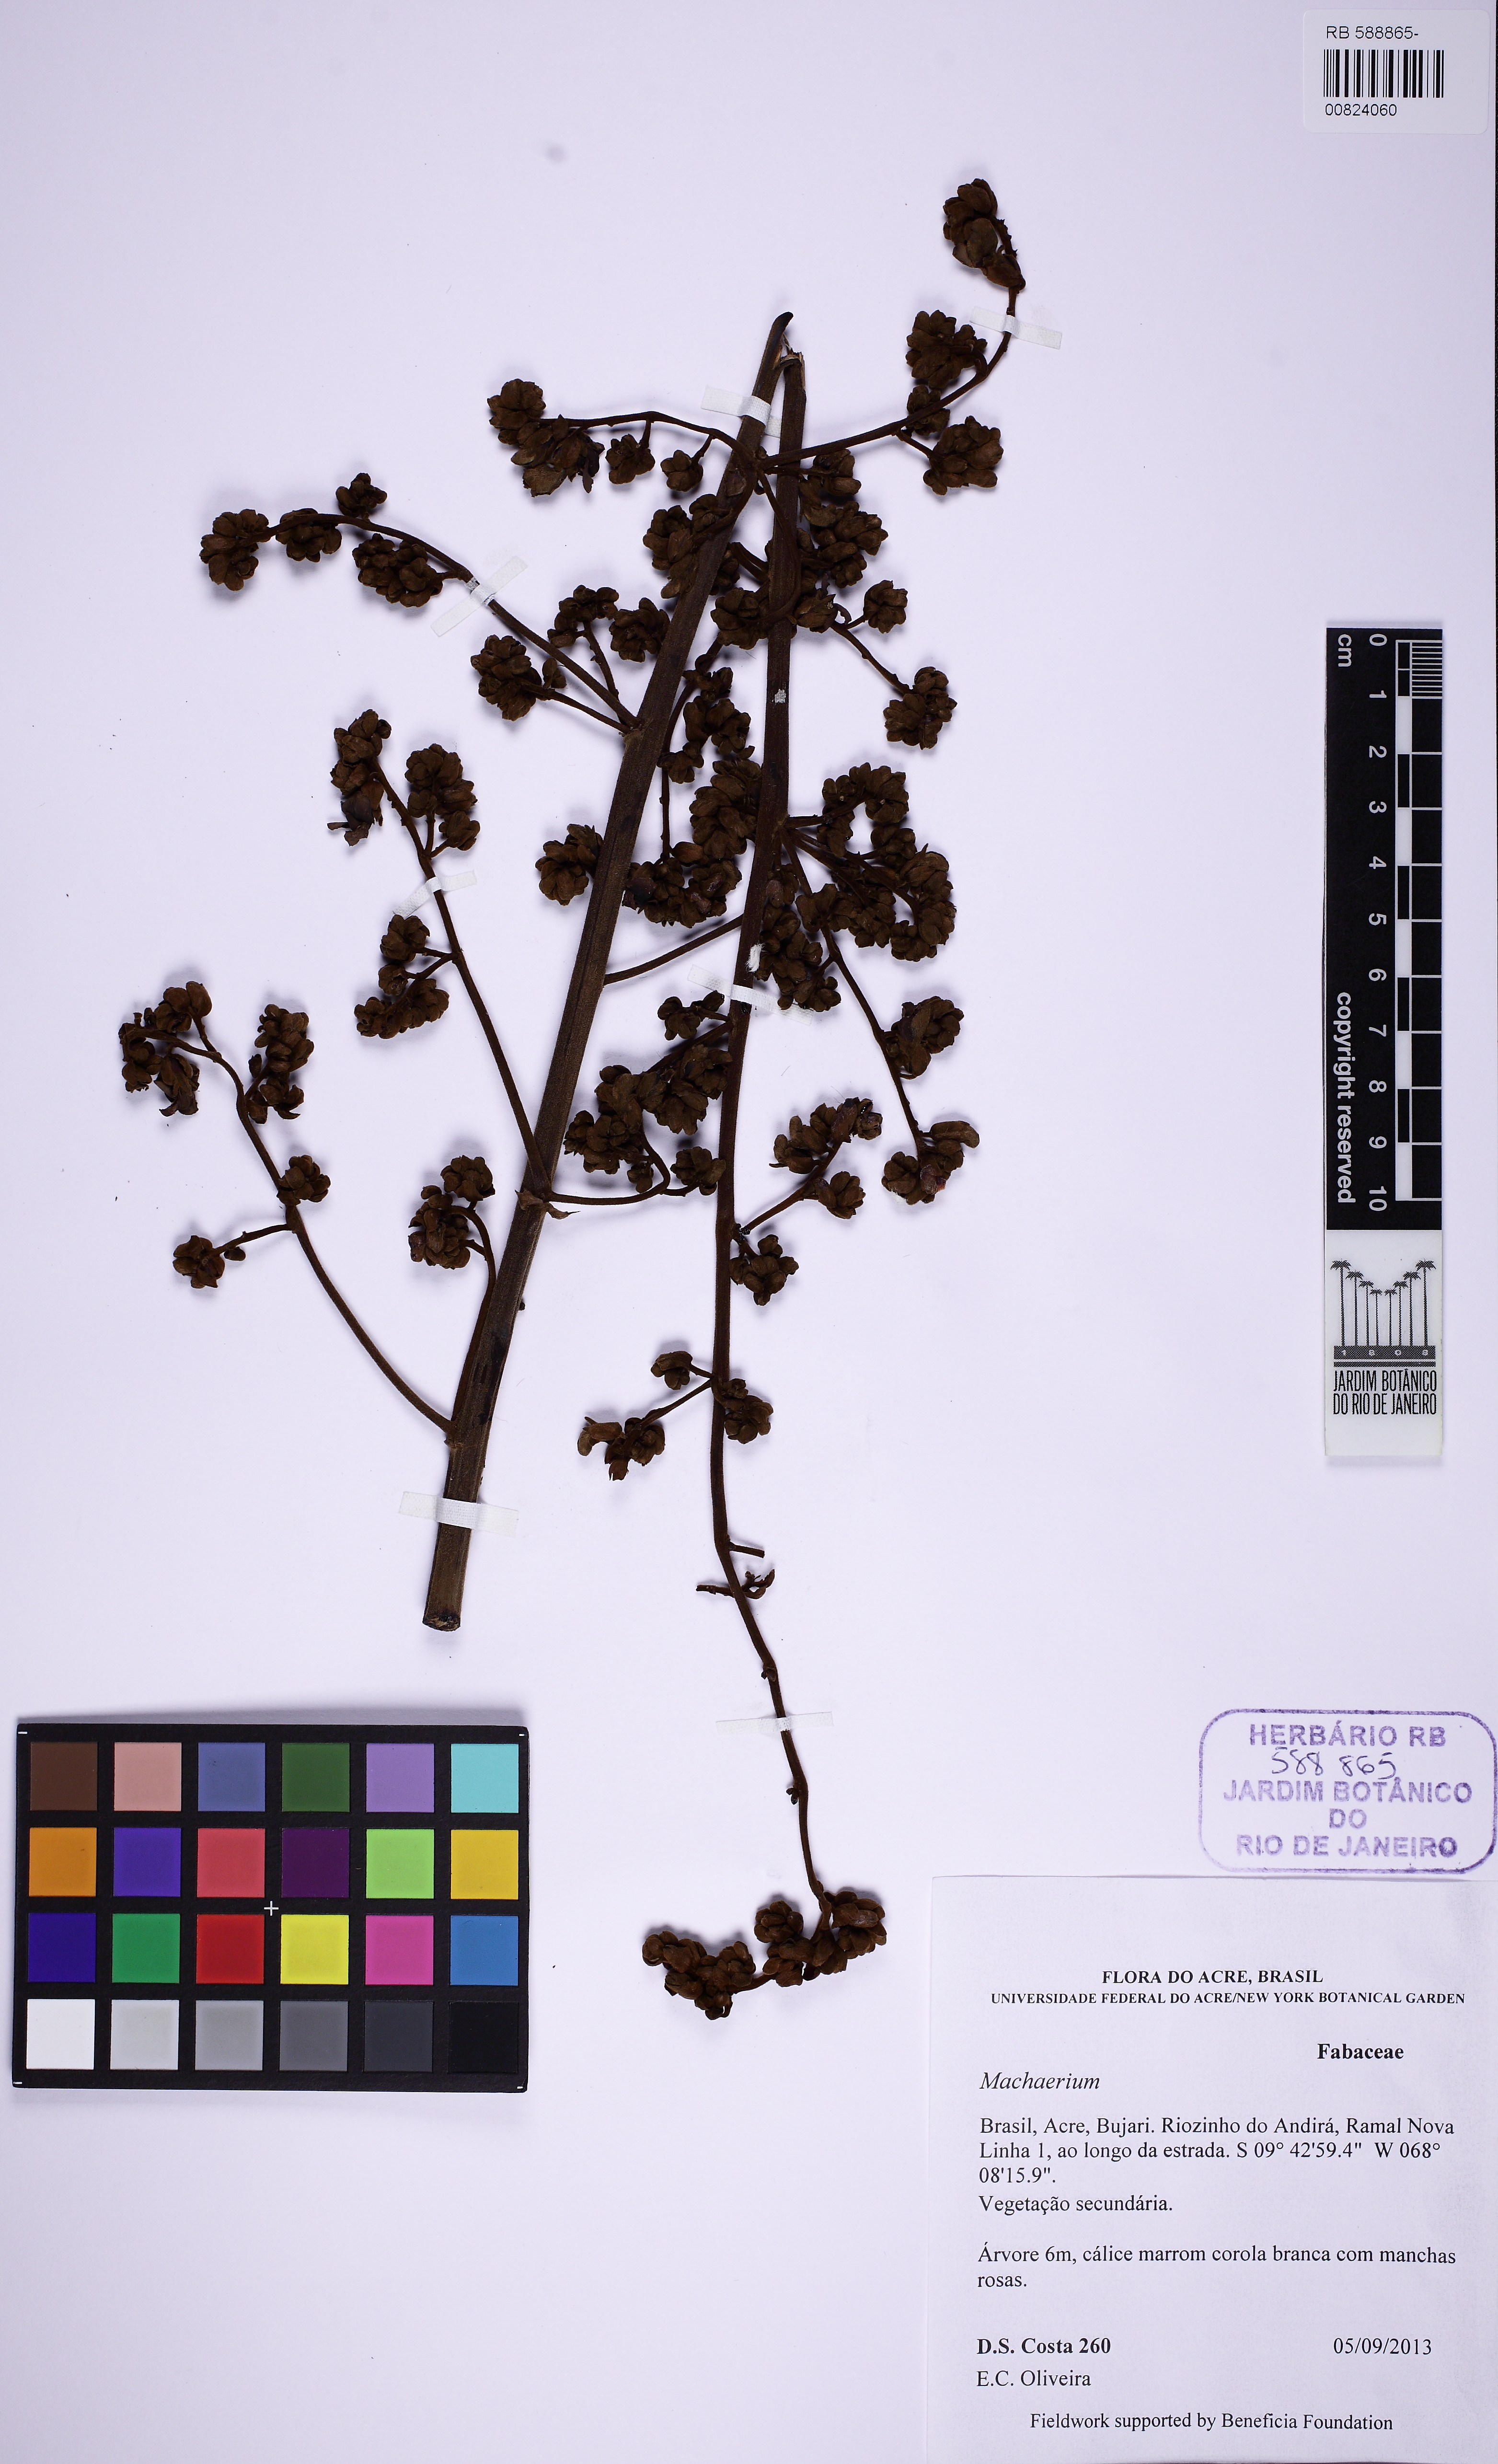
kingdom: Plantae
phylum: Tracheophyta
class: Magnoliopsida
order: Fabales
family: Fabaceae
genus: Machaerium
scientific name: Machaerium
